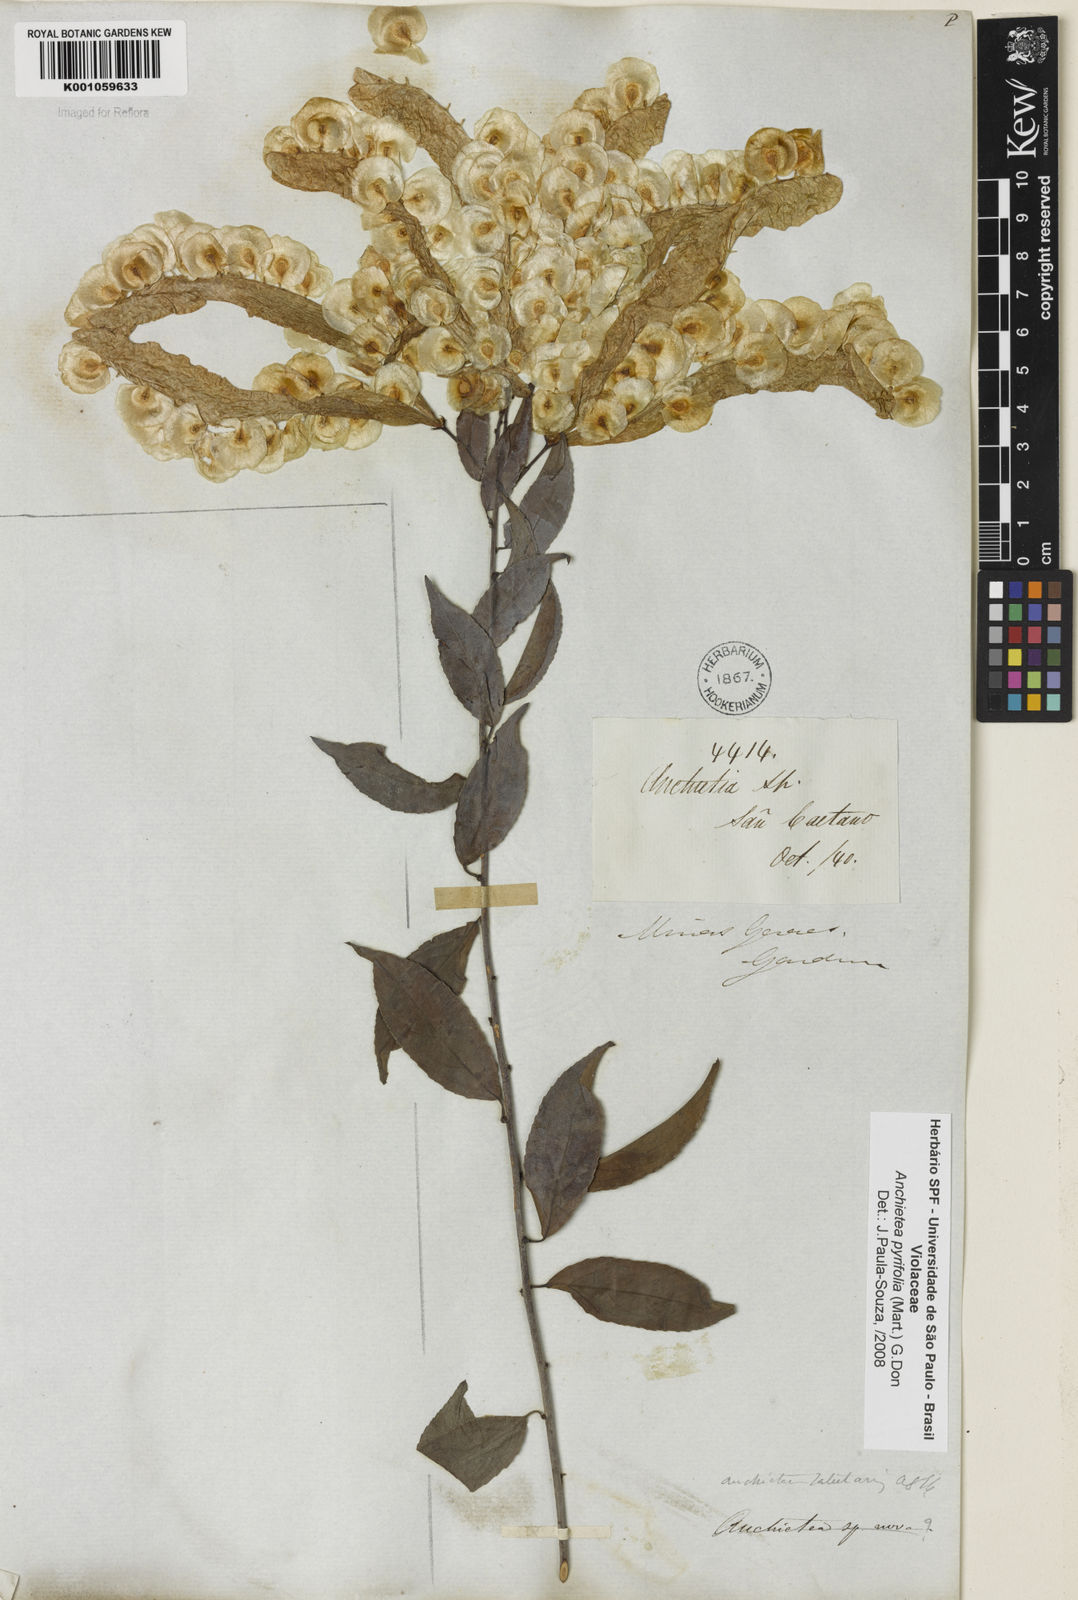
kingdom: Plantae
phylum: Tracheophyta
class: Magnoliopsida
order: Malpighiales
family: Violaceae
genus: Anchietea
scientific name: Anchietea pyrifolia
